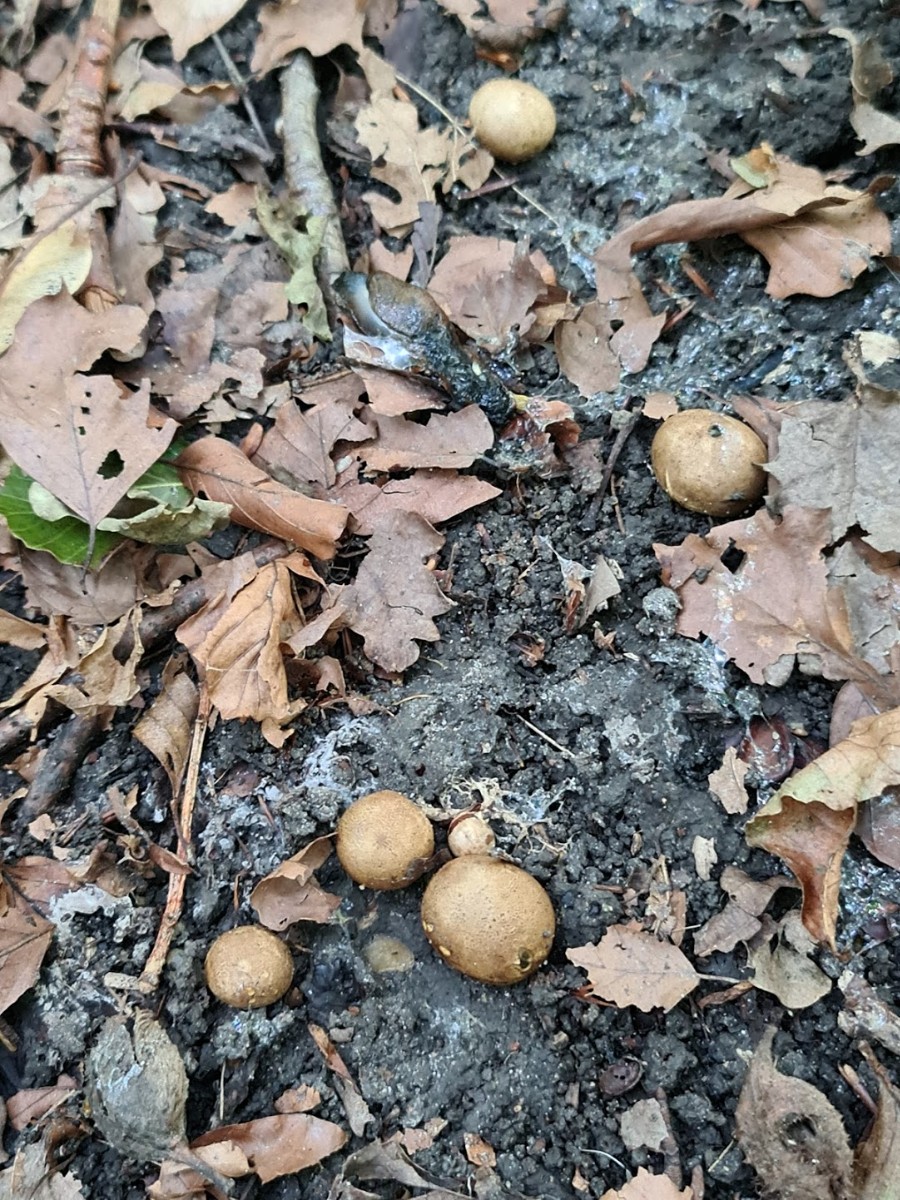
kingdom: Fungi
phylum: Basidiomycota
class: Agaricomycetes
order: Boletales
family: Sclerodermataceae
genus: Scleroderma
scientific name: Scleroderma
